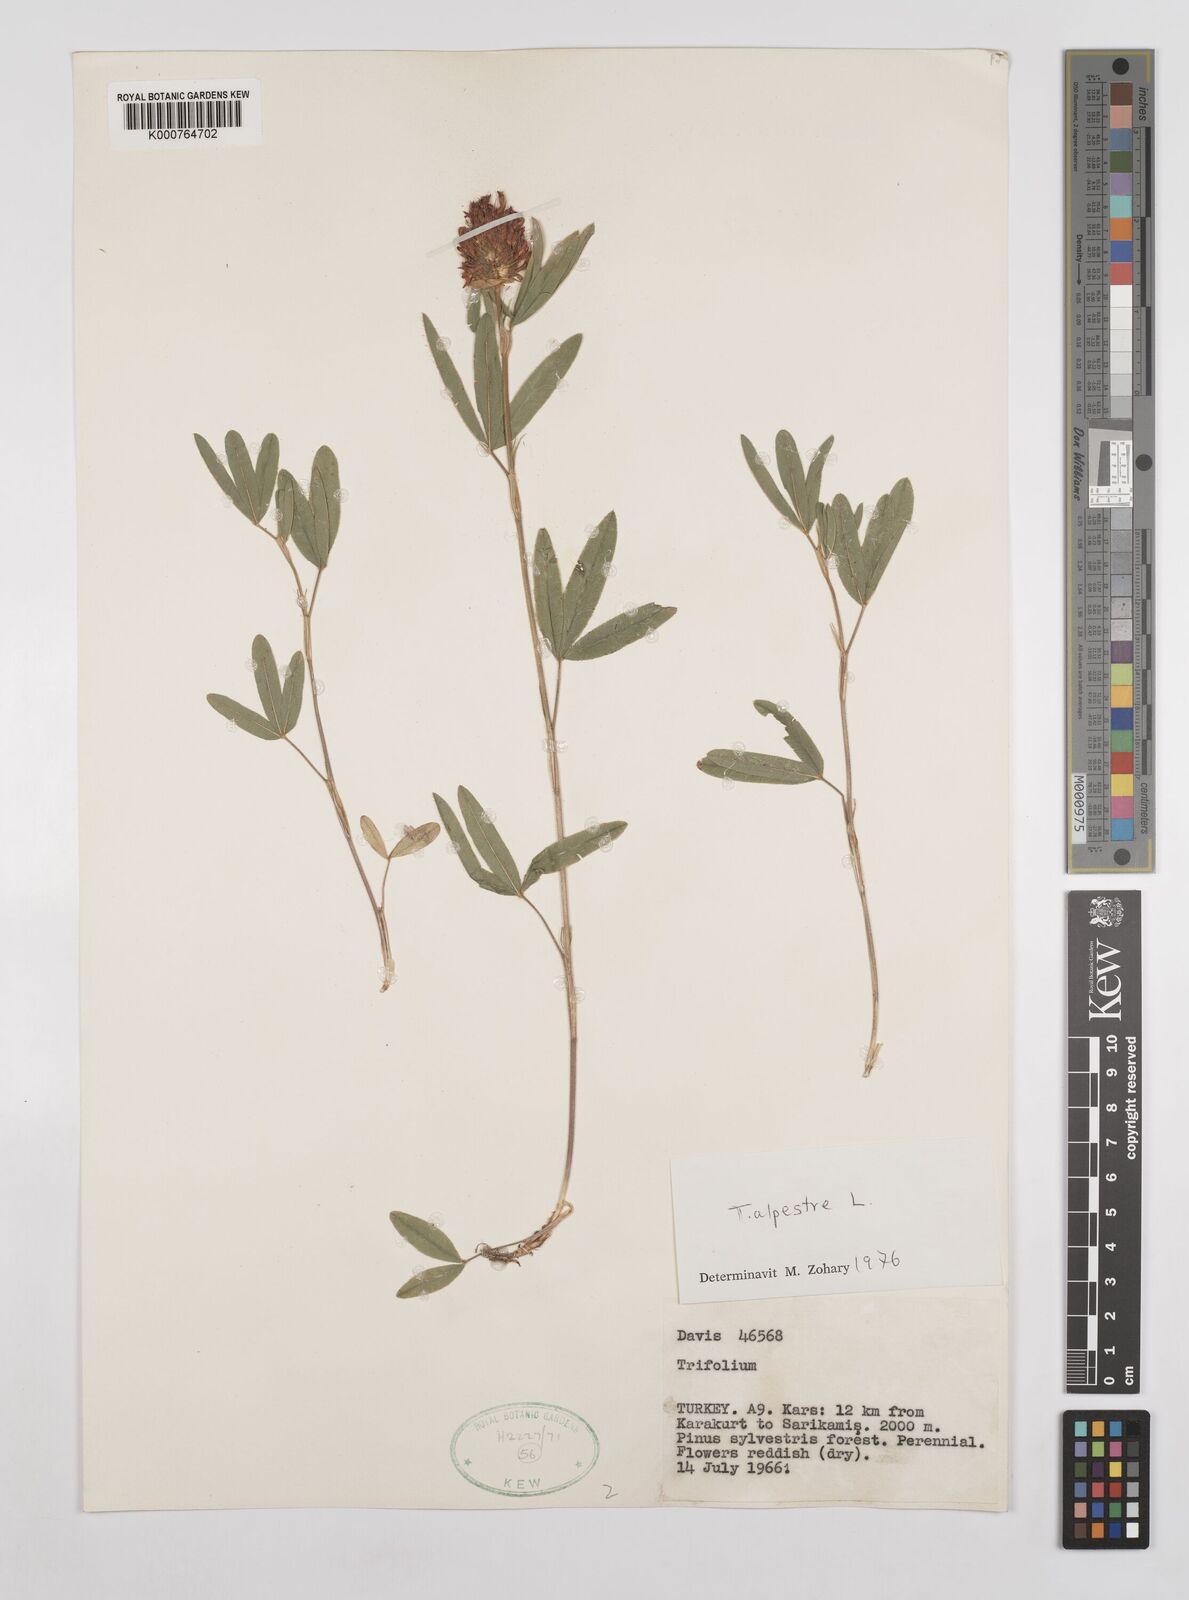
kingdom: Plantae
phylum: Tracheophyta
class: Magnoliopsida
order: Fabales
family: Fabaceae
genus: Trifolium
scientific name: Trifolium alpestre
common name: Owl-head clover
